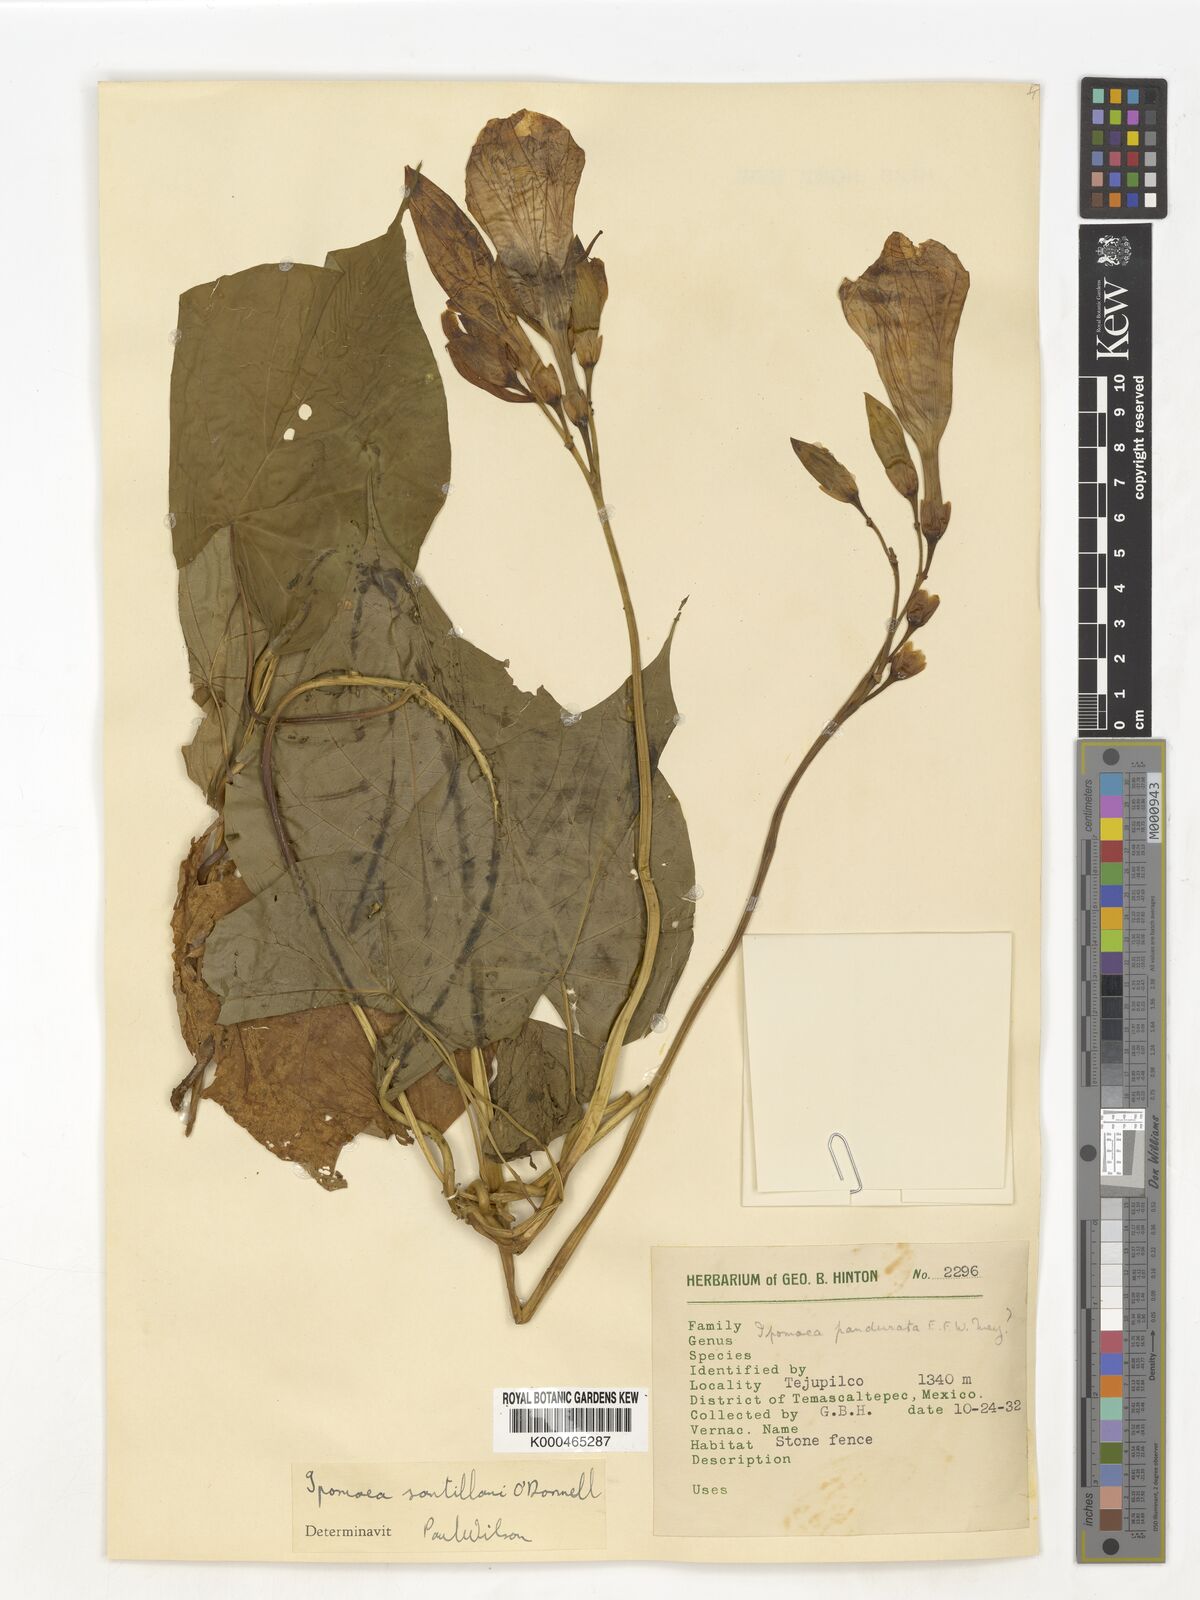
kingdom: Plantae
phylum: Tracheophyta
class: Magnoliopsida
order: Solanales
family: Convolvulaceae
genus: Ipomoea
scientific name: Ipomoea
